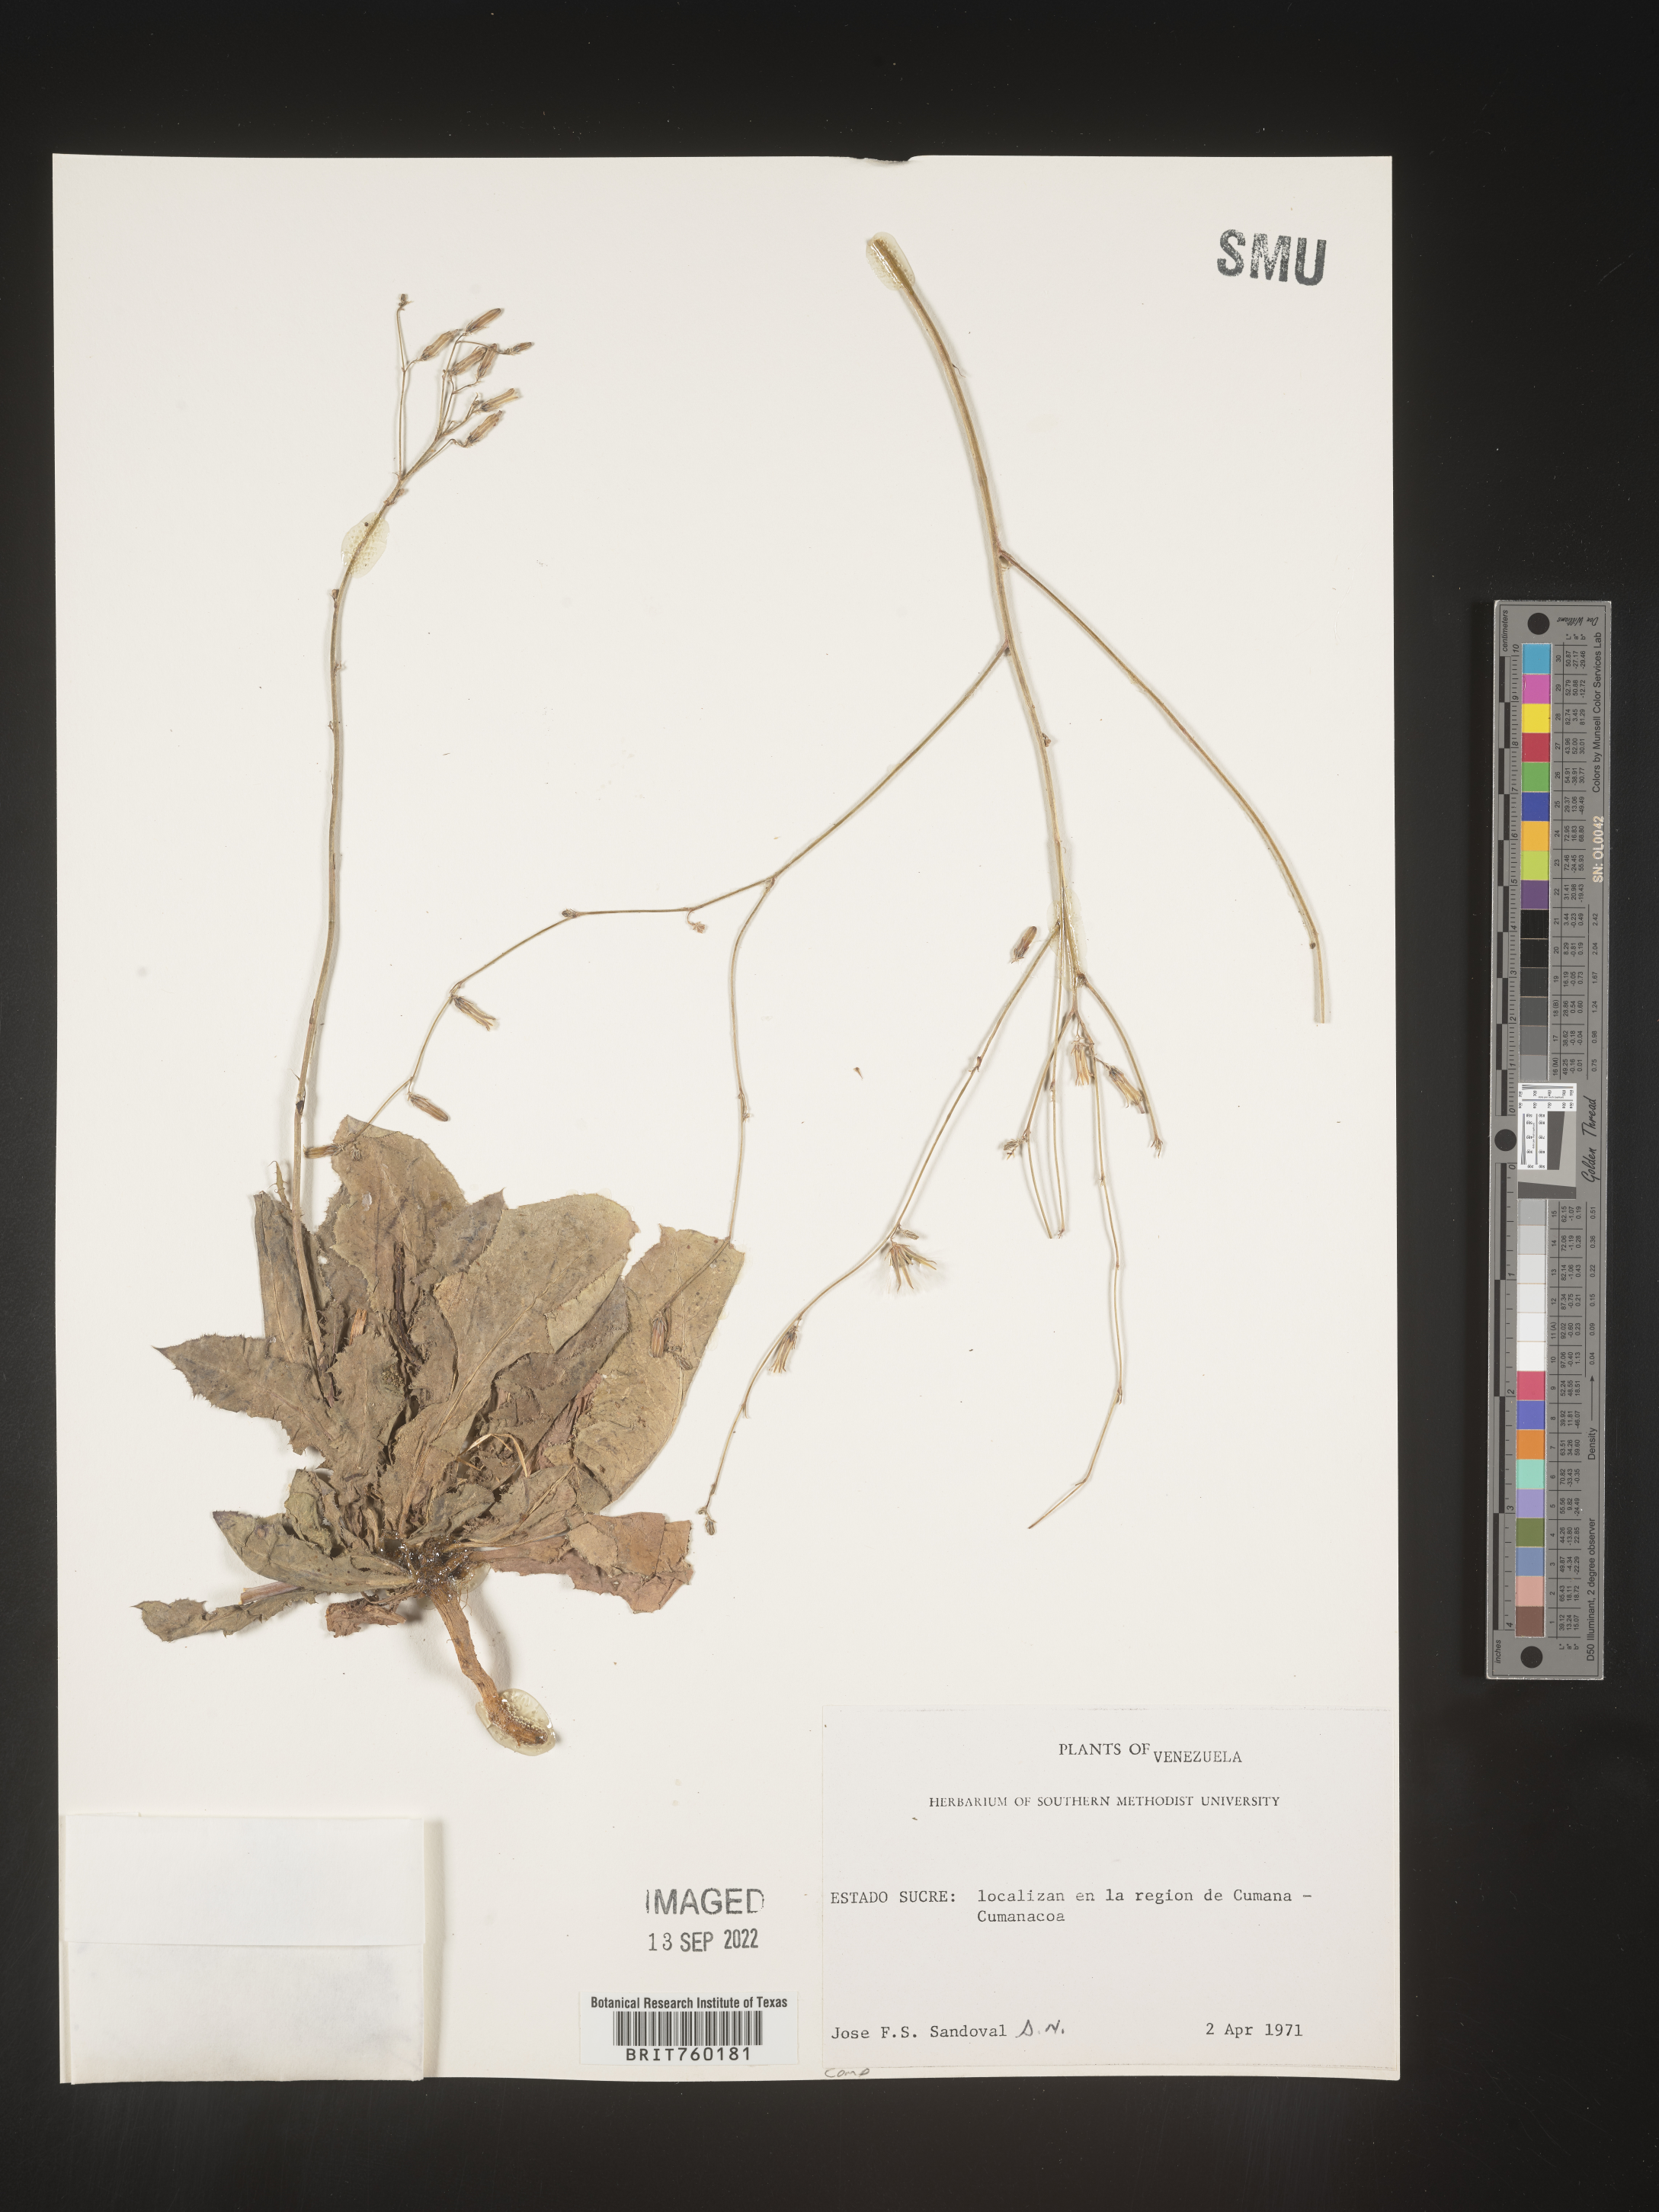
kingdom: Plantae
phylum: Tracheophyta
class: Magnoliopsida
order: Asterales
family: Asteraceae
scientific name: Asteraceae
